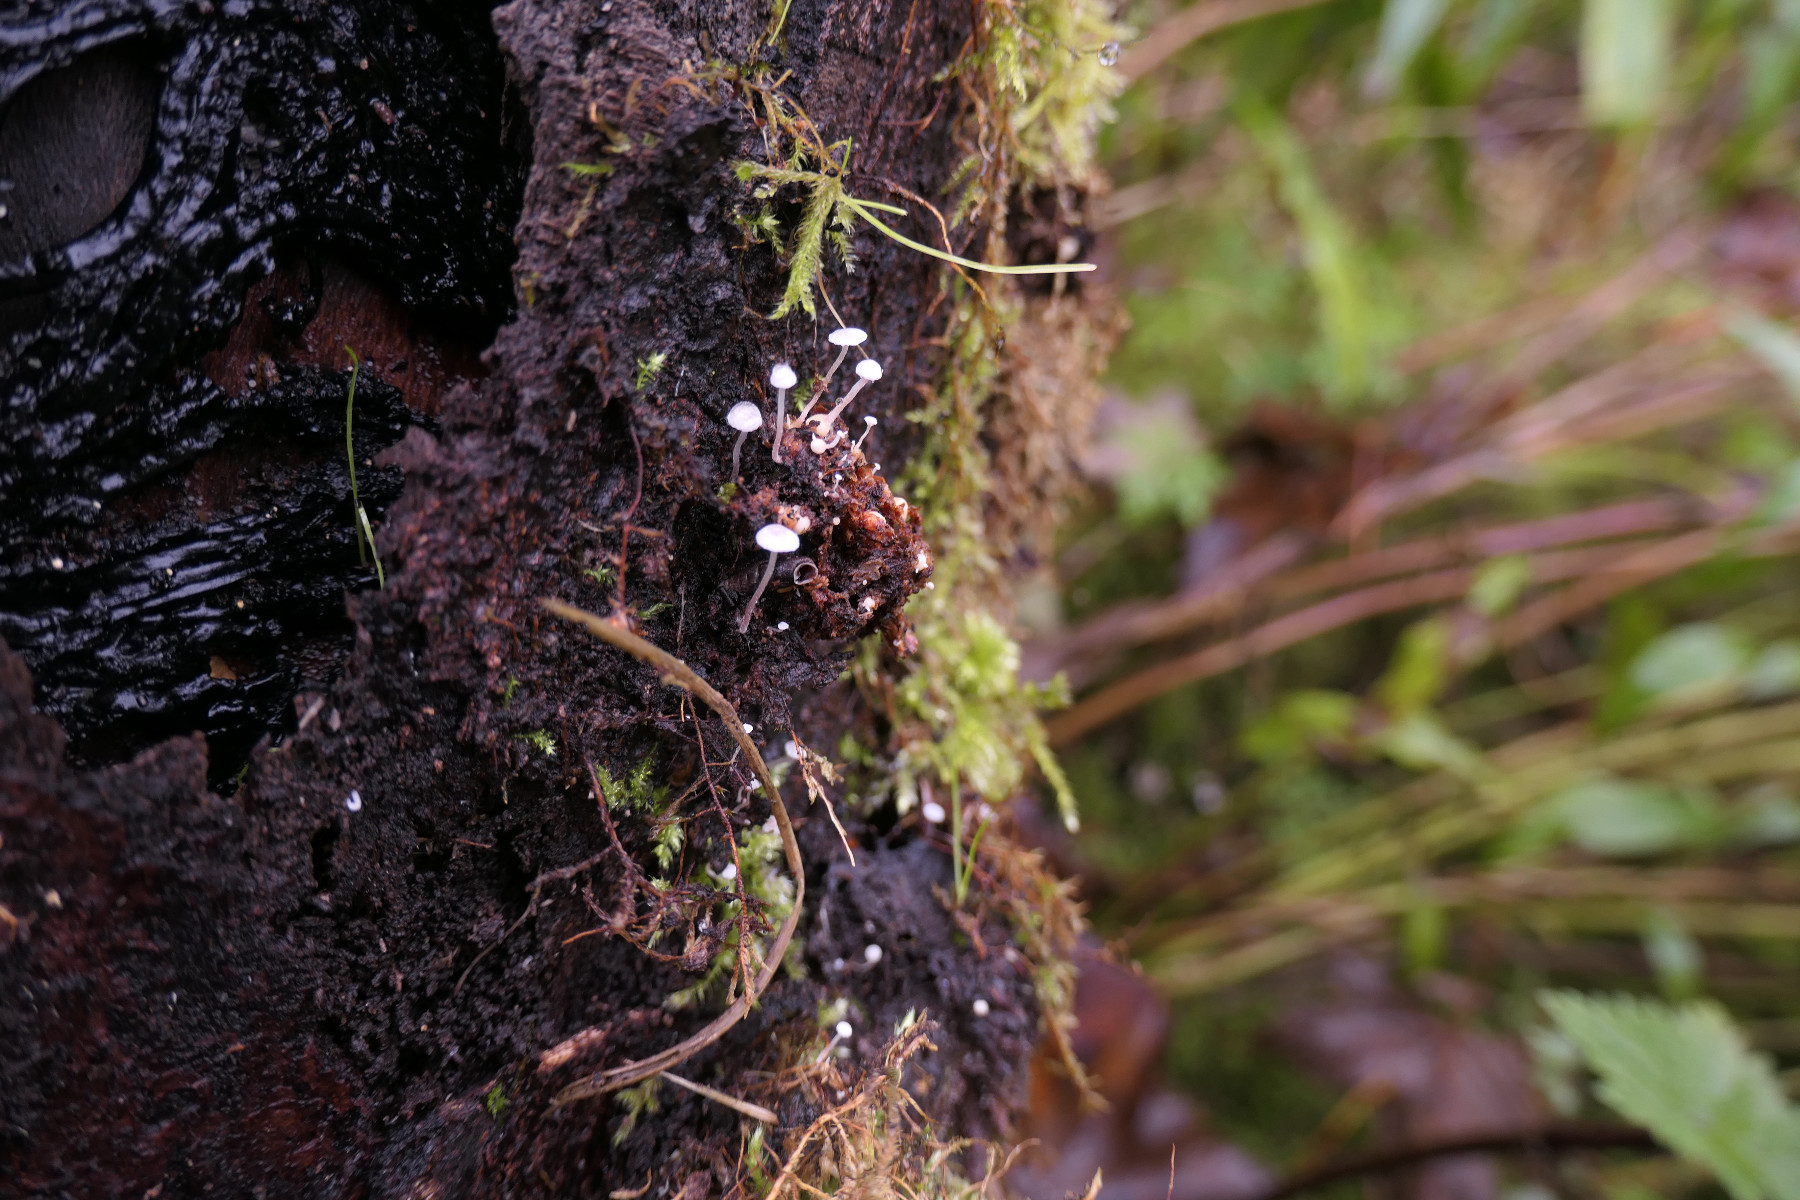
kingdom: Fungi
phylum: Basidiomycota
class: Agaricomycetes
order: Agaricales
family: Tricholomataceae
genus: Collybia
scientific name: Collybia cookei
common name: gulknoldet lighat
